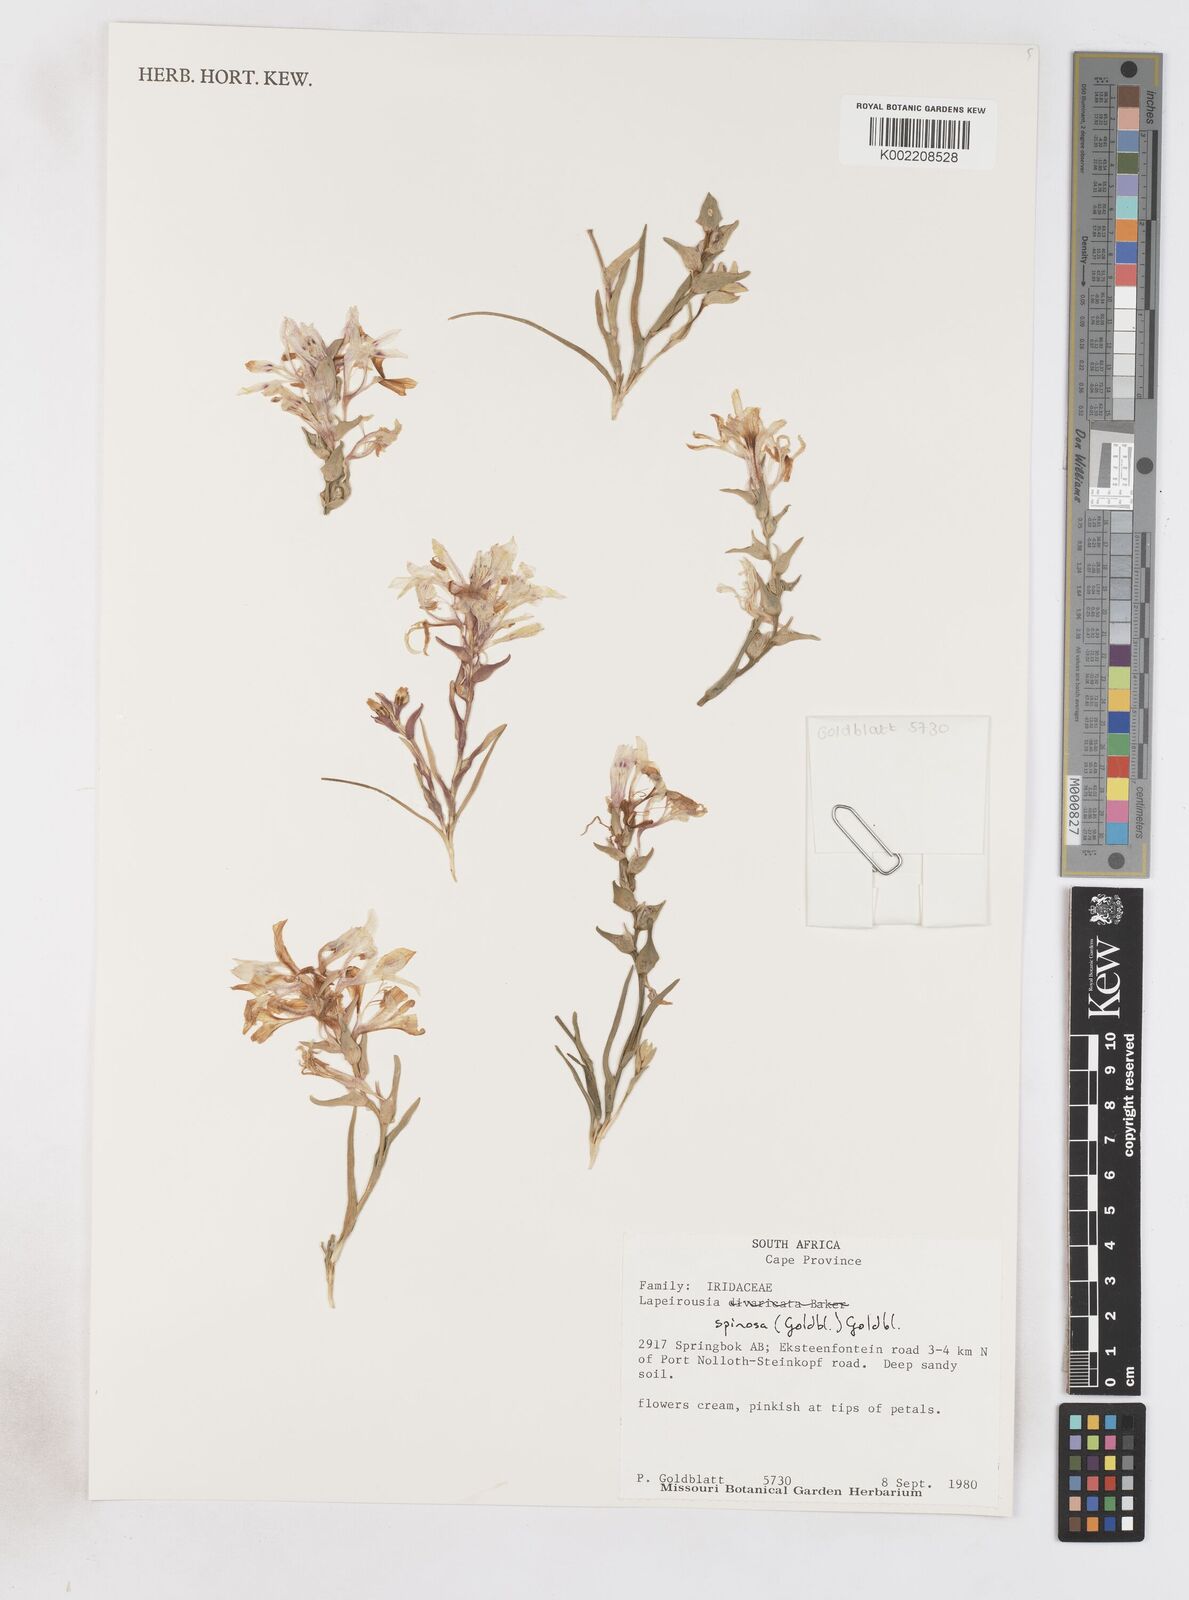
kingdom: Plantae
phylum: Tracheophyta
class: Liliopsida
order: Asparagales
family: Iridaceae
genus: Lapeirousia
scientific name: Lapeirousia spinosa
